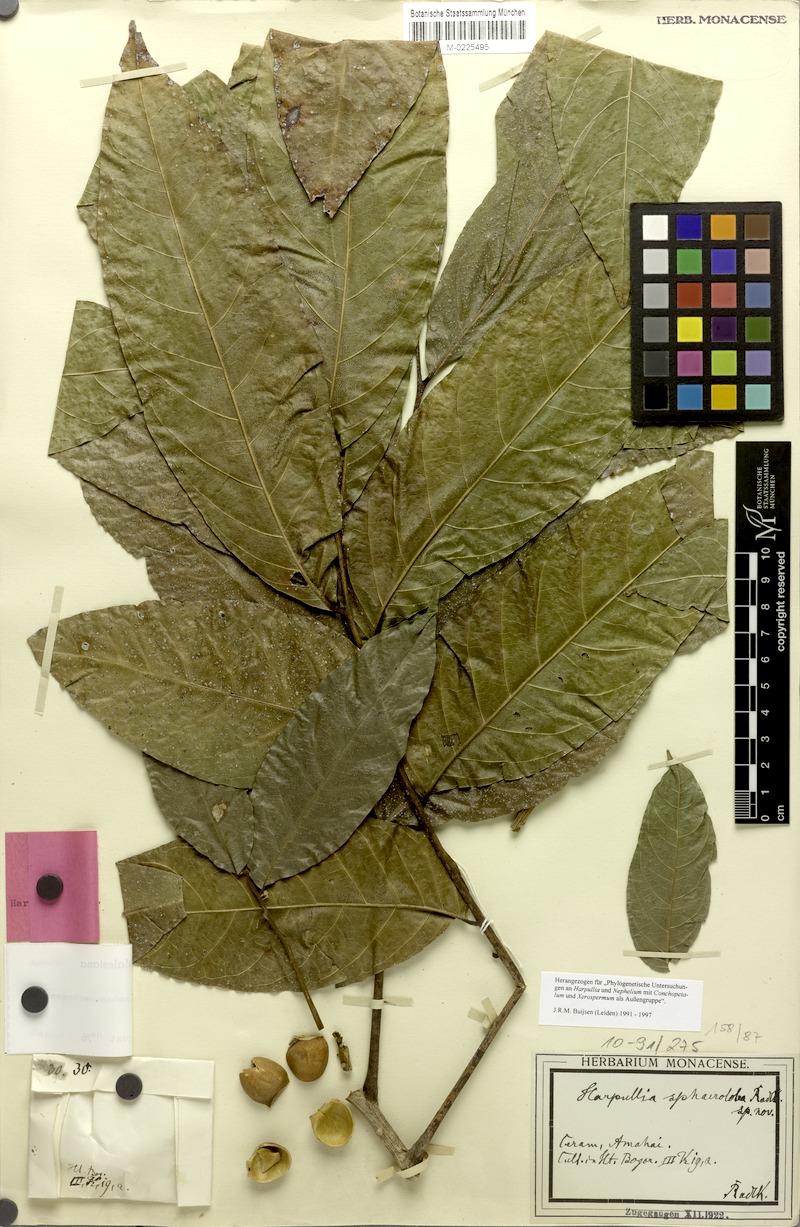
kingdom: Plantae
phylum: Tracheophyta
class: Magnoliopsida
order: Sapindales
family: Sapindaceae
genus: Harpullia
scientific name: Harpullia arborea
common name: Tulip-wood tree
